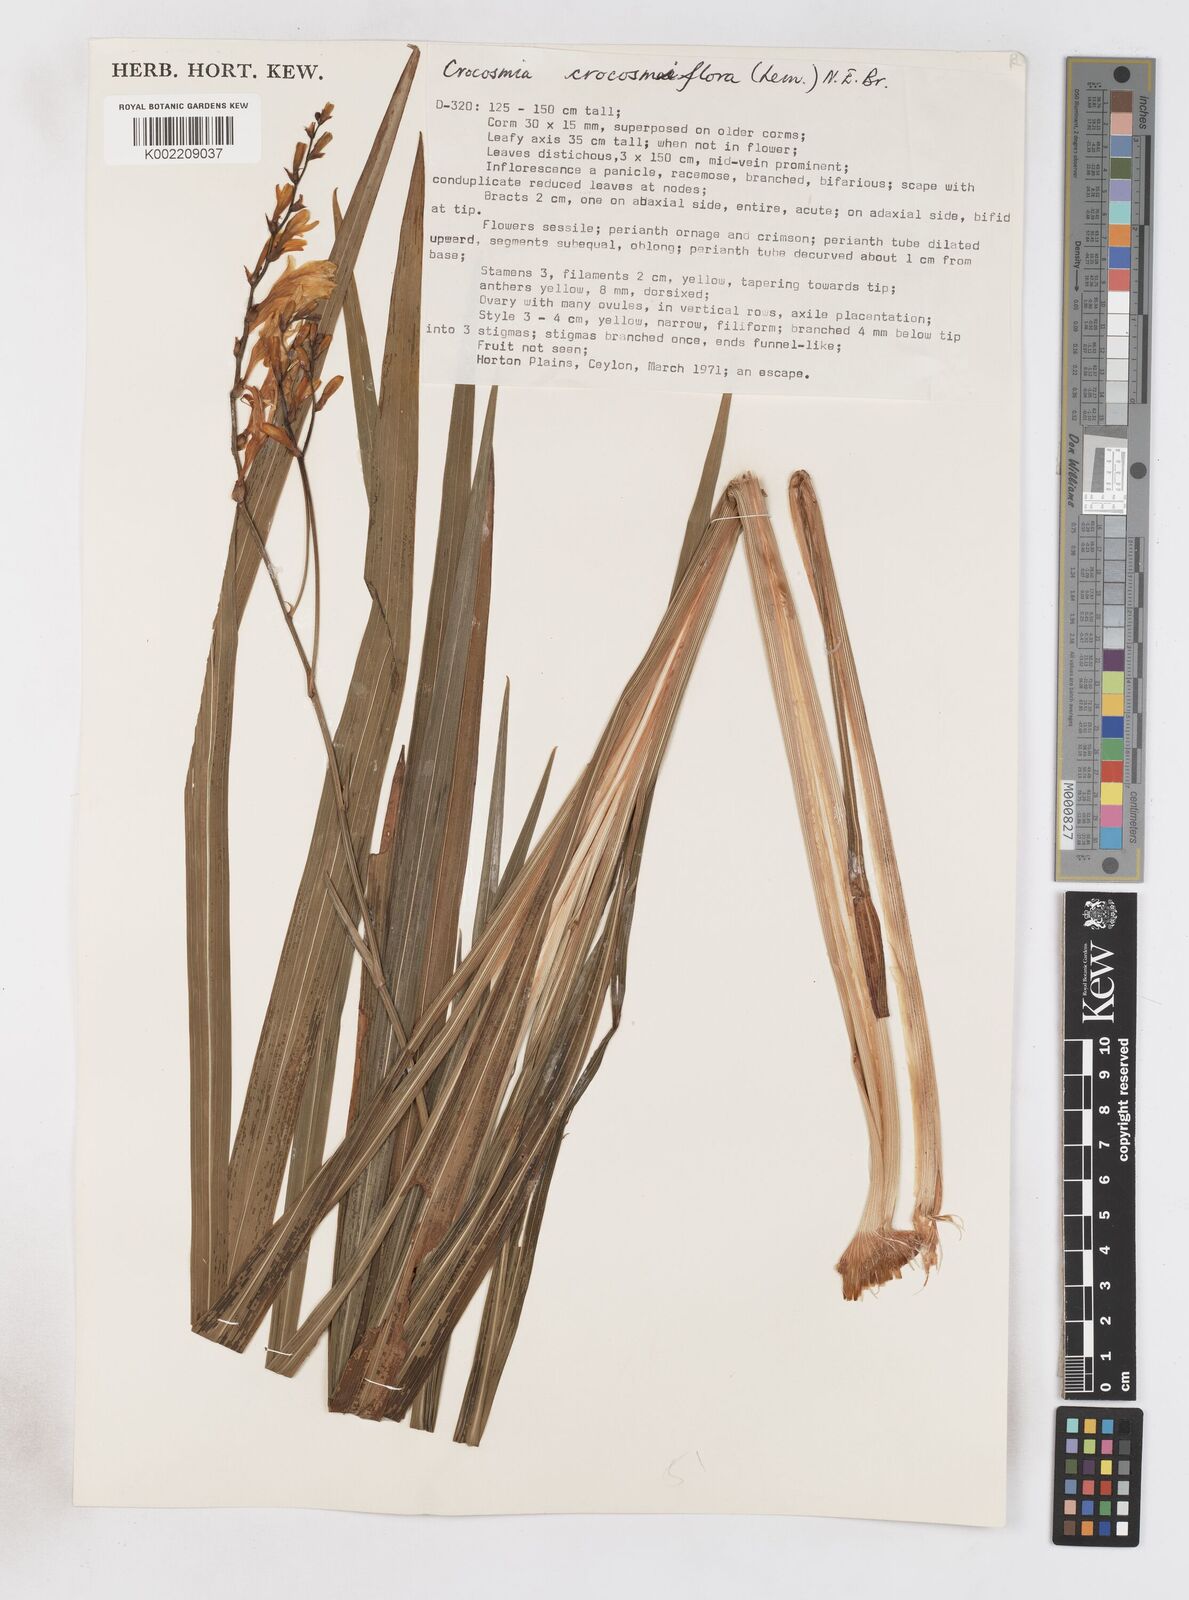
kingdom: Plantae
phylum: Tracheophyta
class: Liliopsida
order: Asparagales
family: Iridaceae
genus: Crocosmia
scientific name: Crocosmia crocosmiiflora
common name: Montbretia
